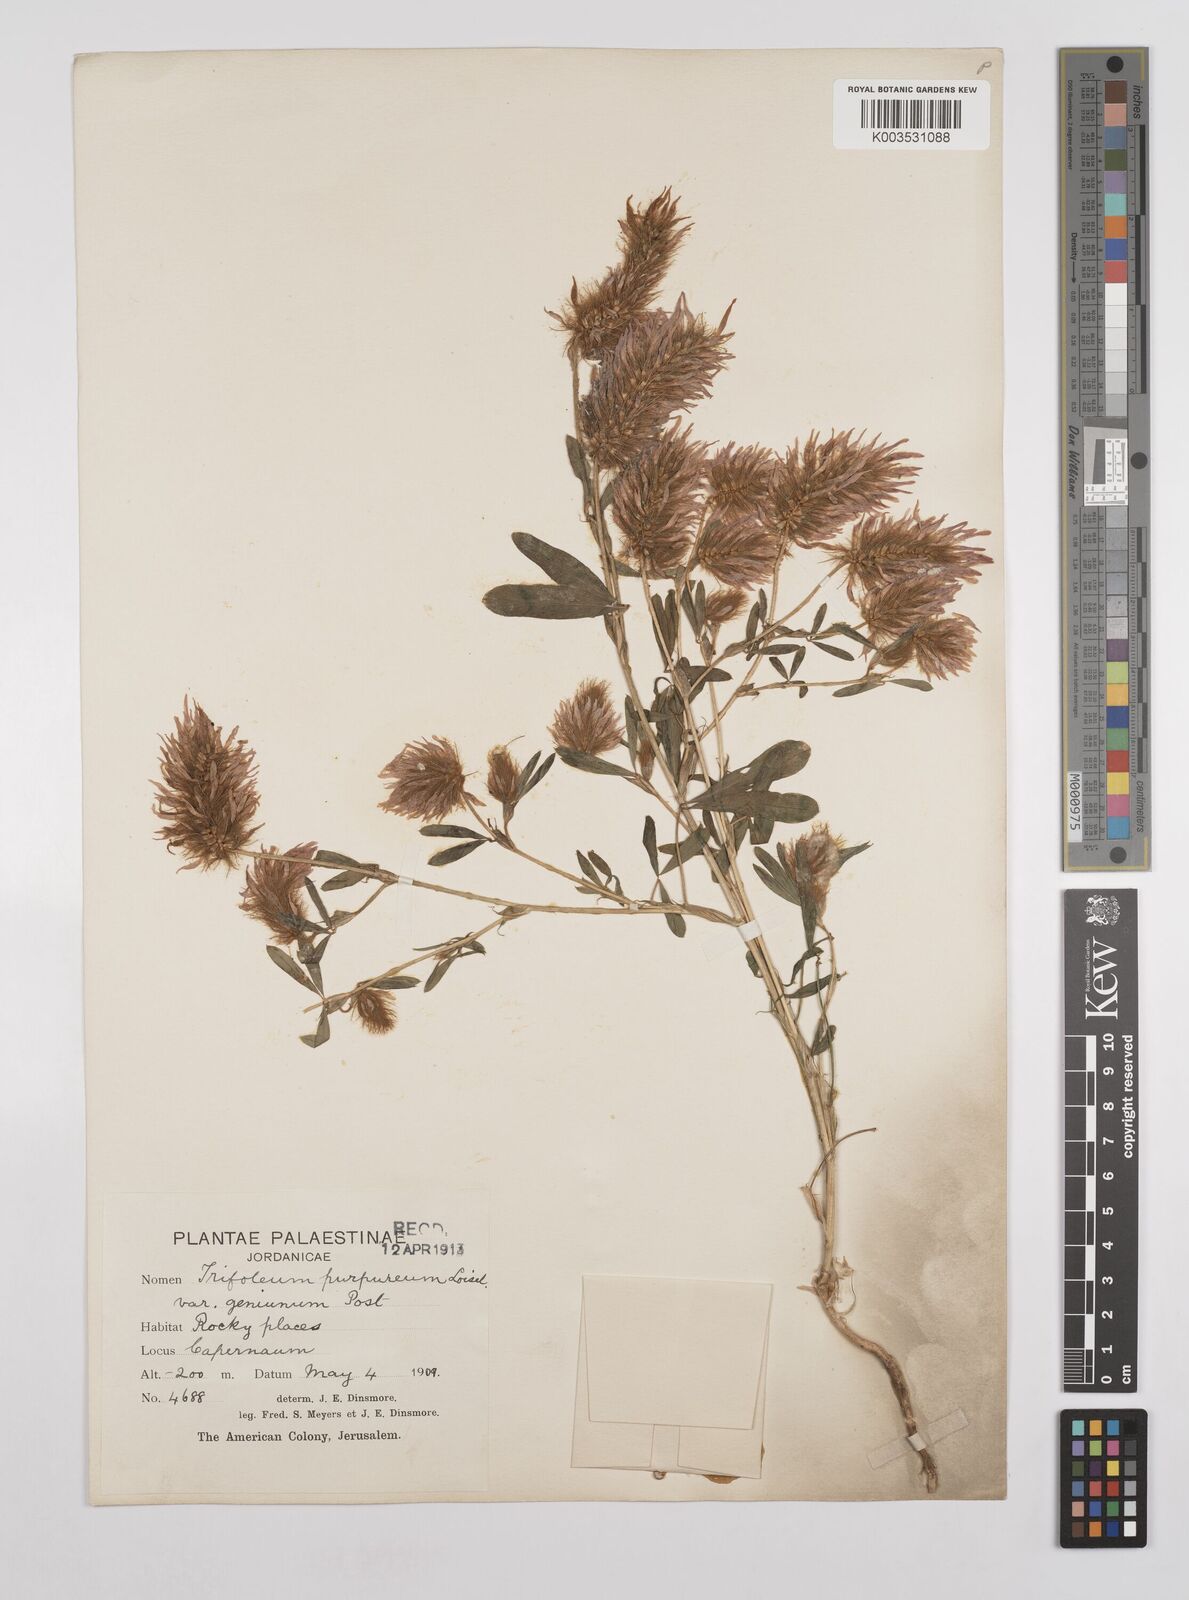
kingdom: Plantae
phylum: Tracheophyta
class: Magnoliopsida
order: Fabales
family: Fabaceae
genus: Trifolium
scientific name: Trifolium purpureum
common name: Purple clover
